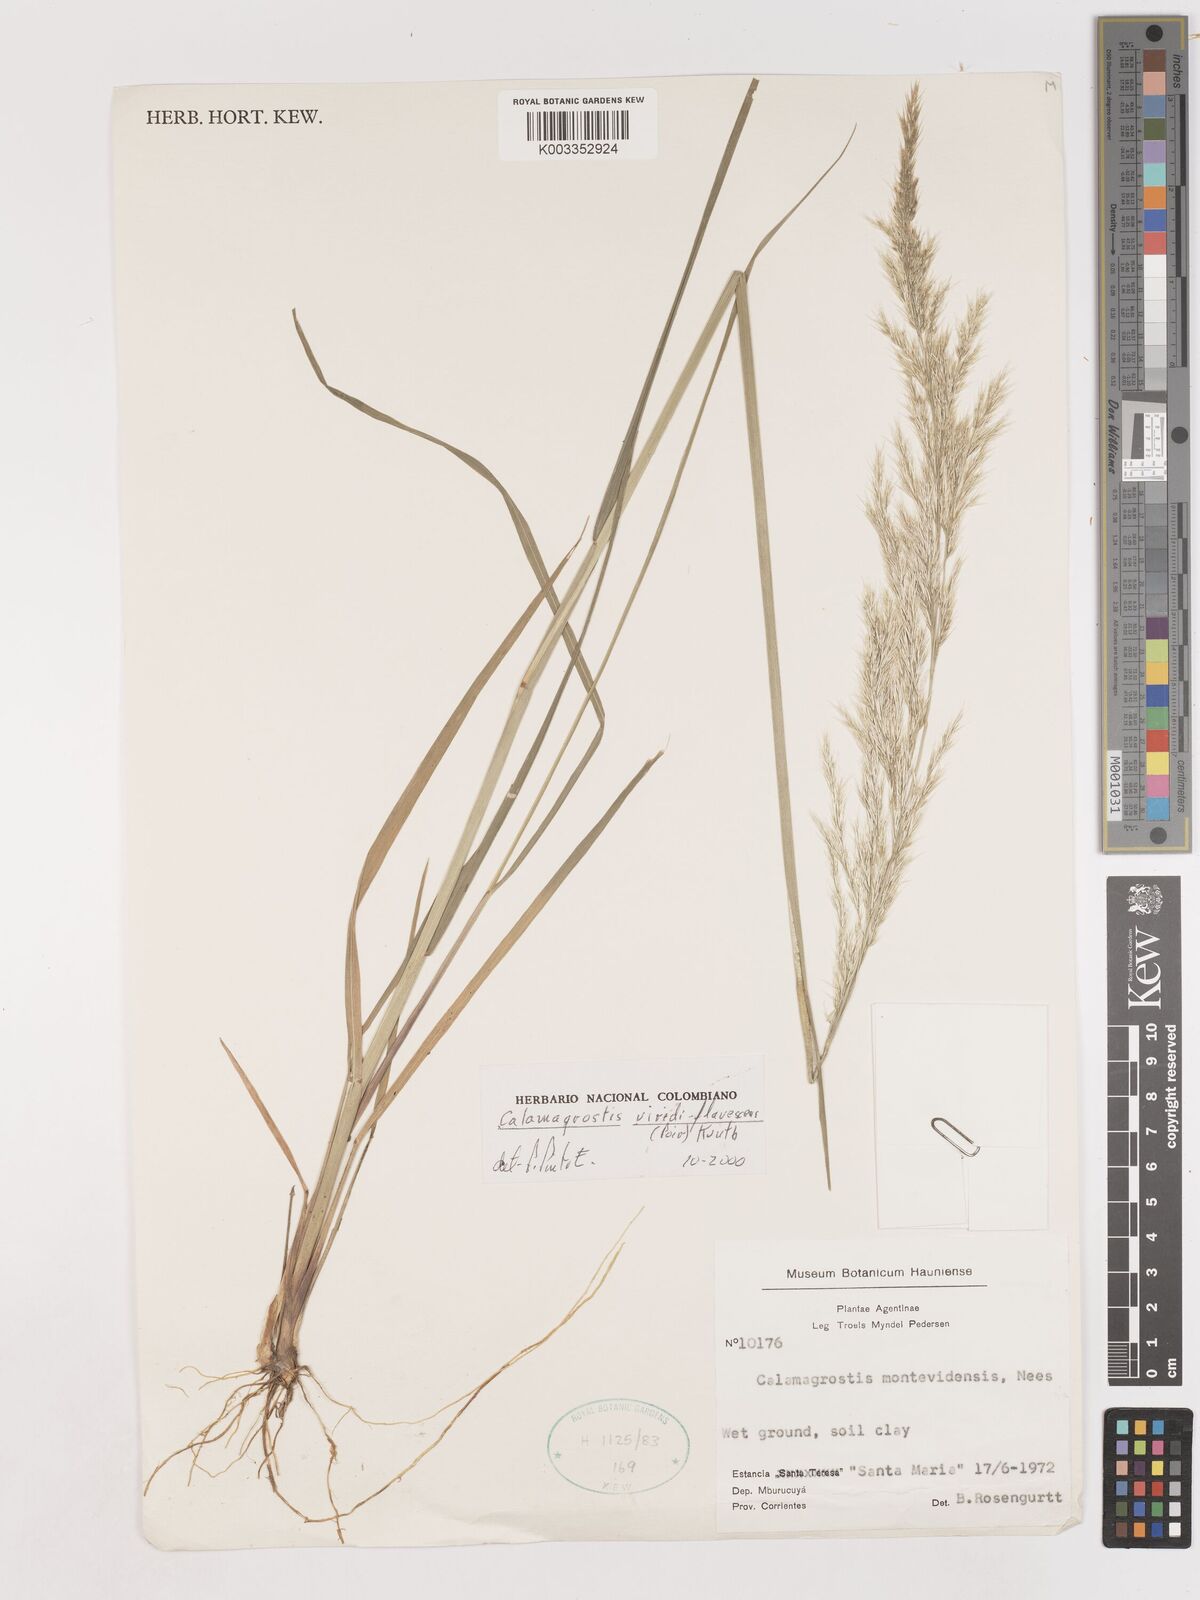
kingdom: Plantae
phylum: Tracheophyta
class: Liliopsida
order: Poales
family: Poaceae
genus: Cinnagrostis
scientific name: Cinnagrostis viridiflavescens
